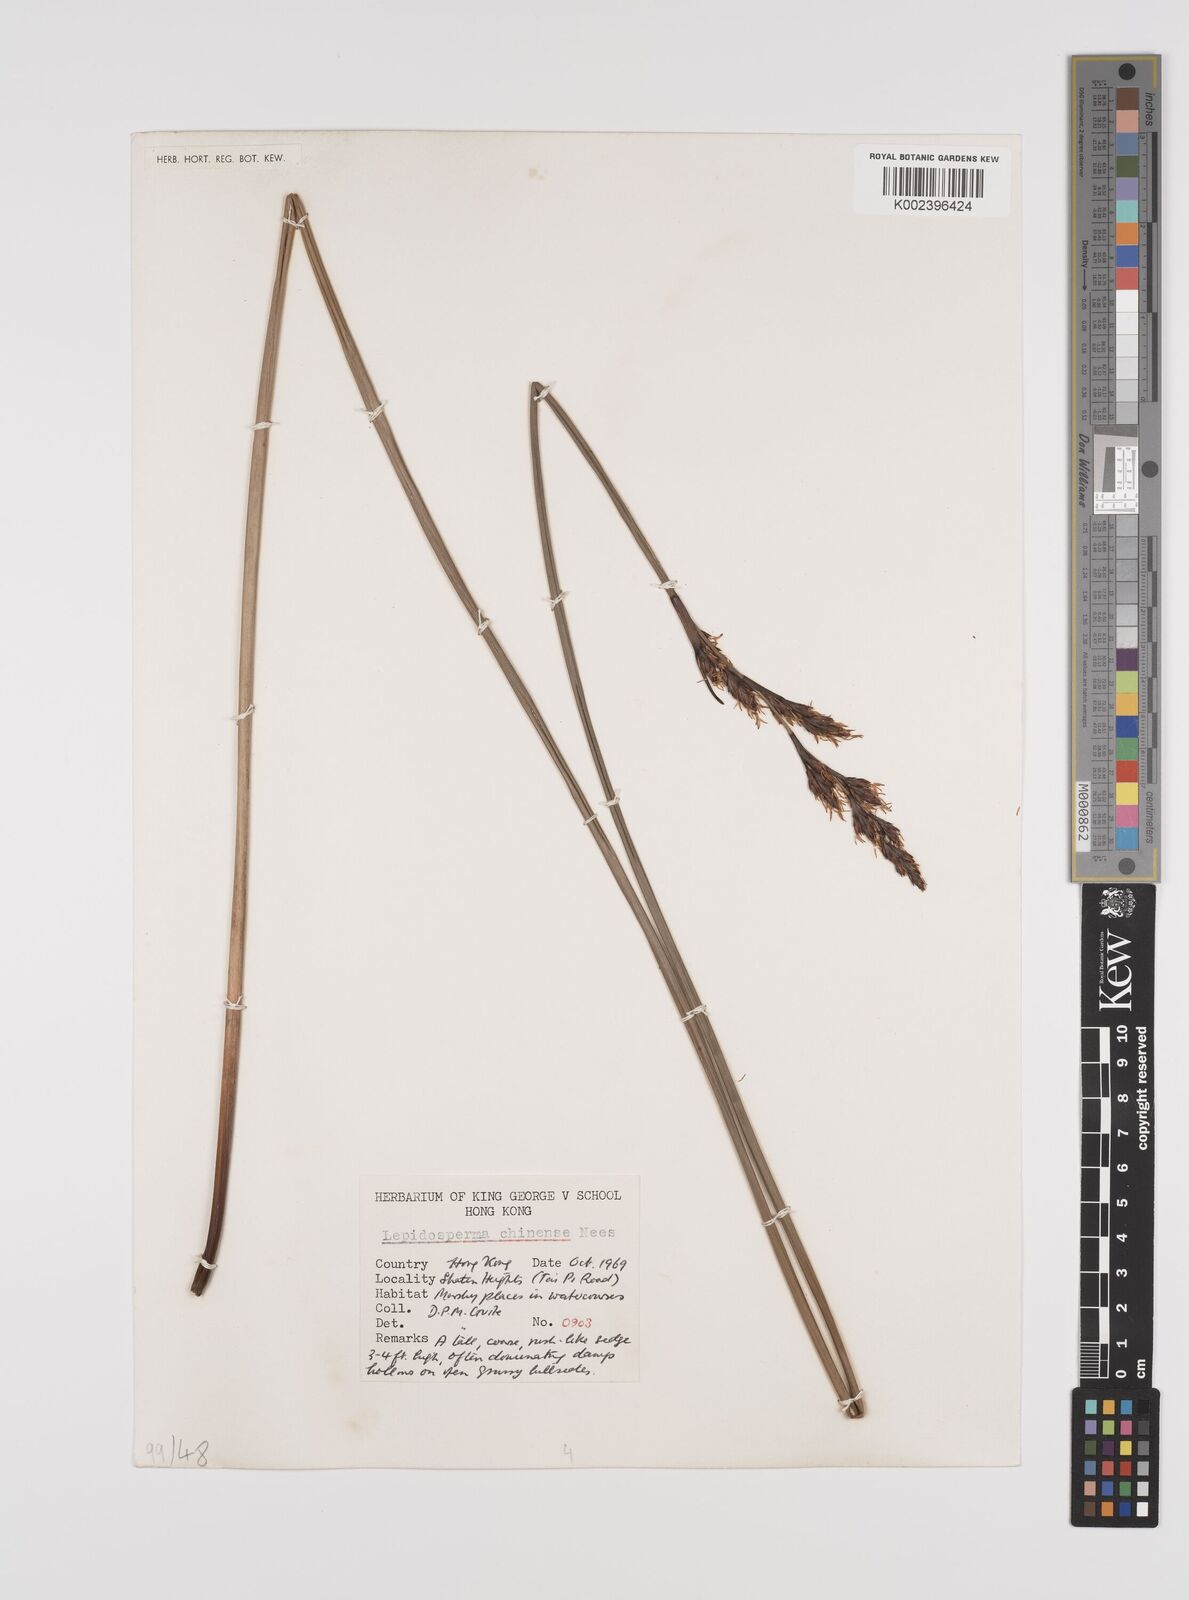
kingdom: Plantae
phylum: Tracheophyta
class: Liliopsida
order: Poales
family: Cyperaceae
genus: Lepidosperma
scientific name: Lepidosperma chinense
